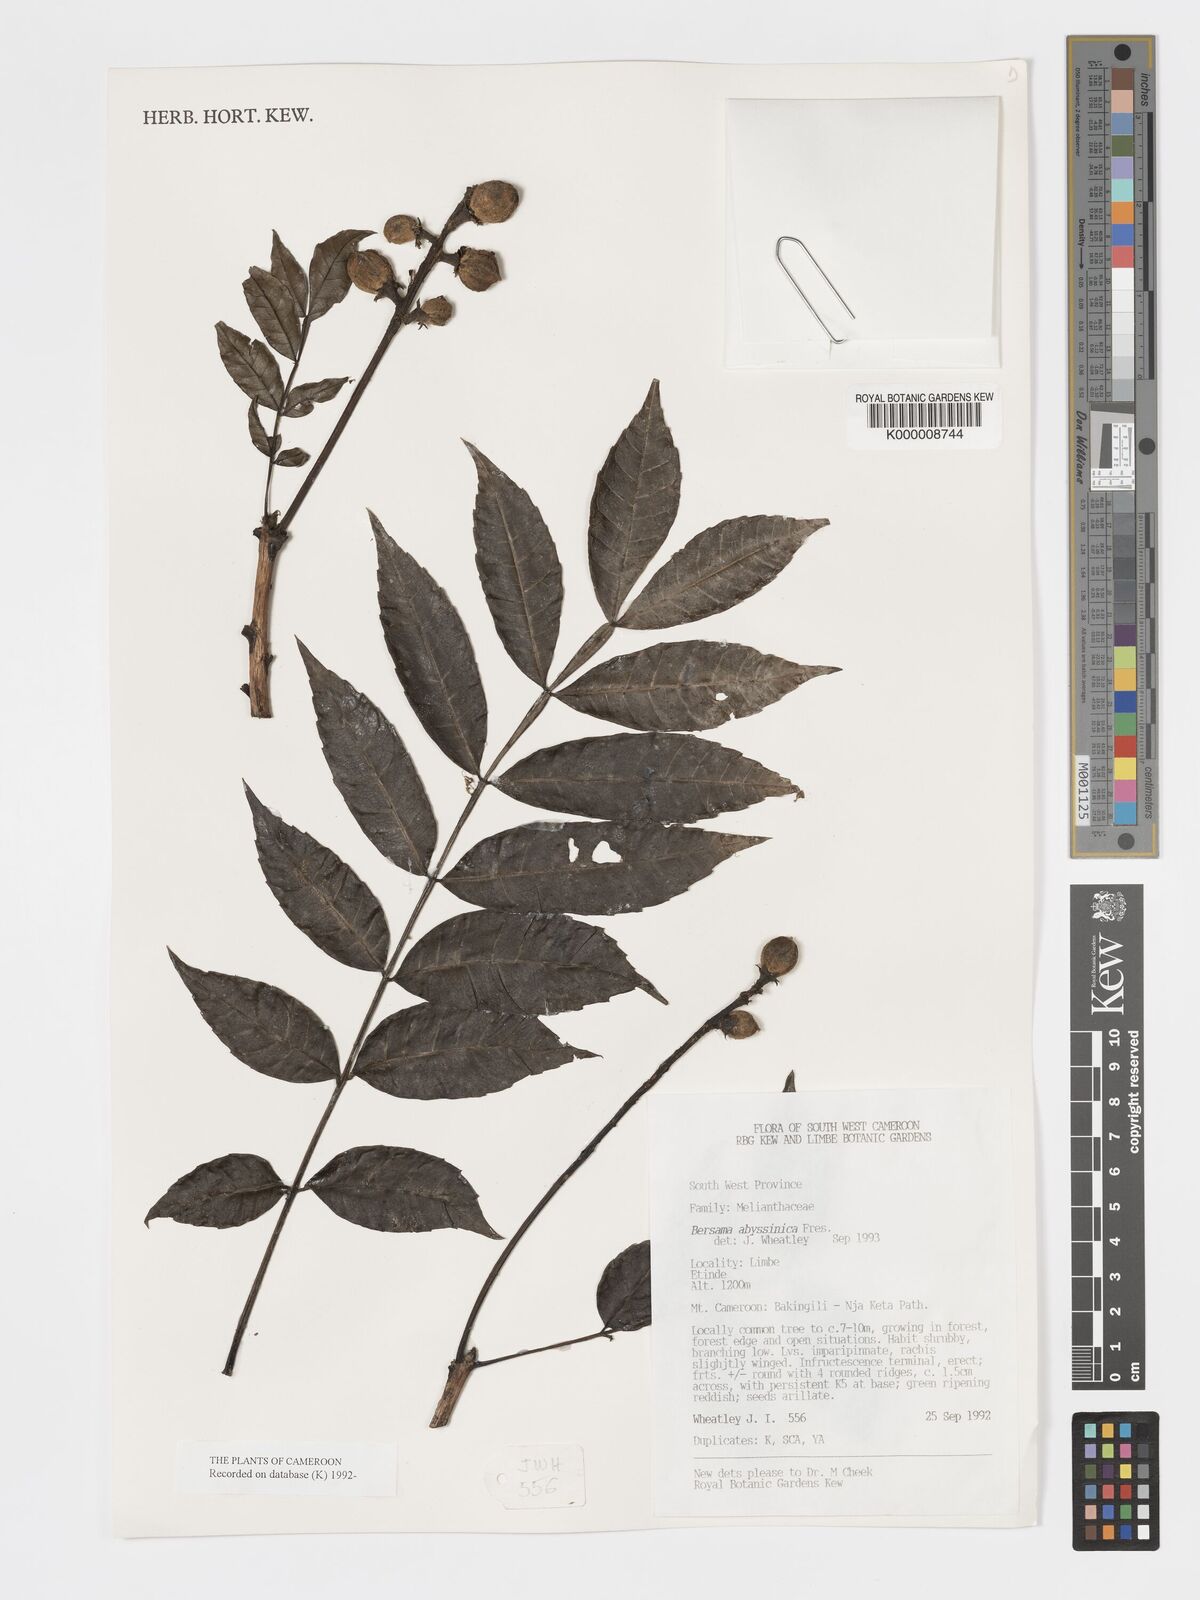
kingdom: Plantae
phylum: Tracheophyta
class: Magnoliopsida
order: Geraniales
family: Melianthaceae
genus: Bersama
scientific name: Bersama abyssinica
